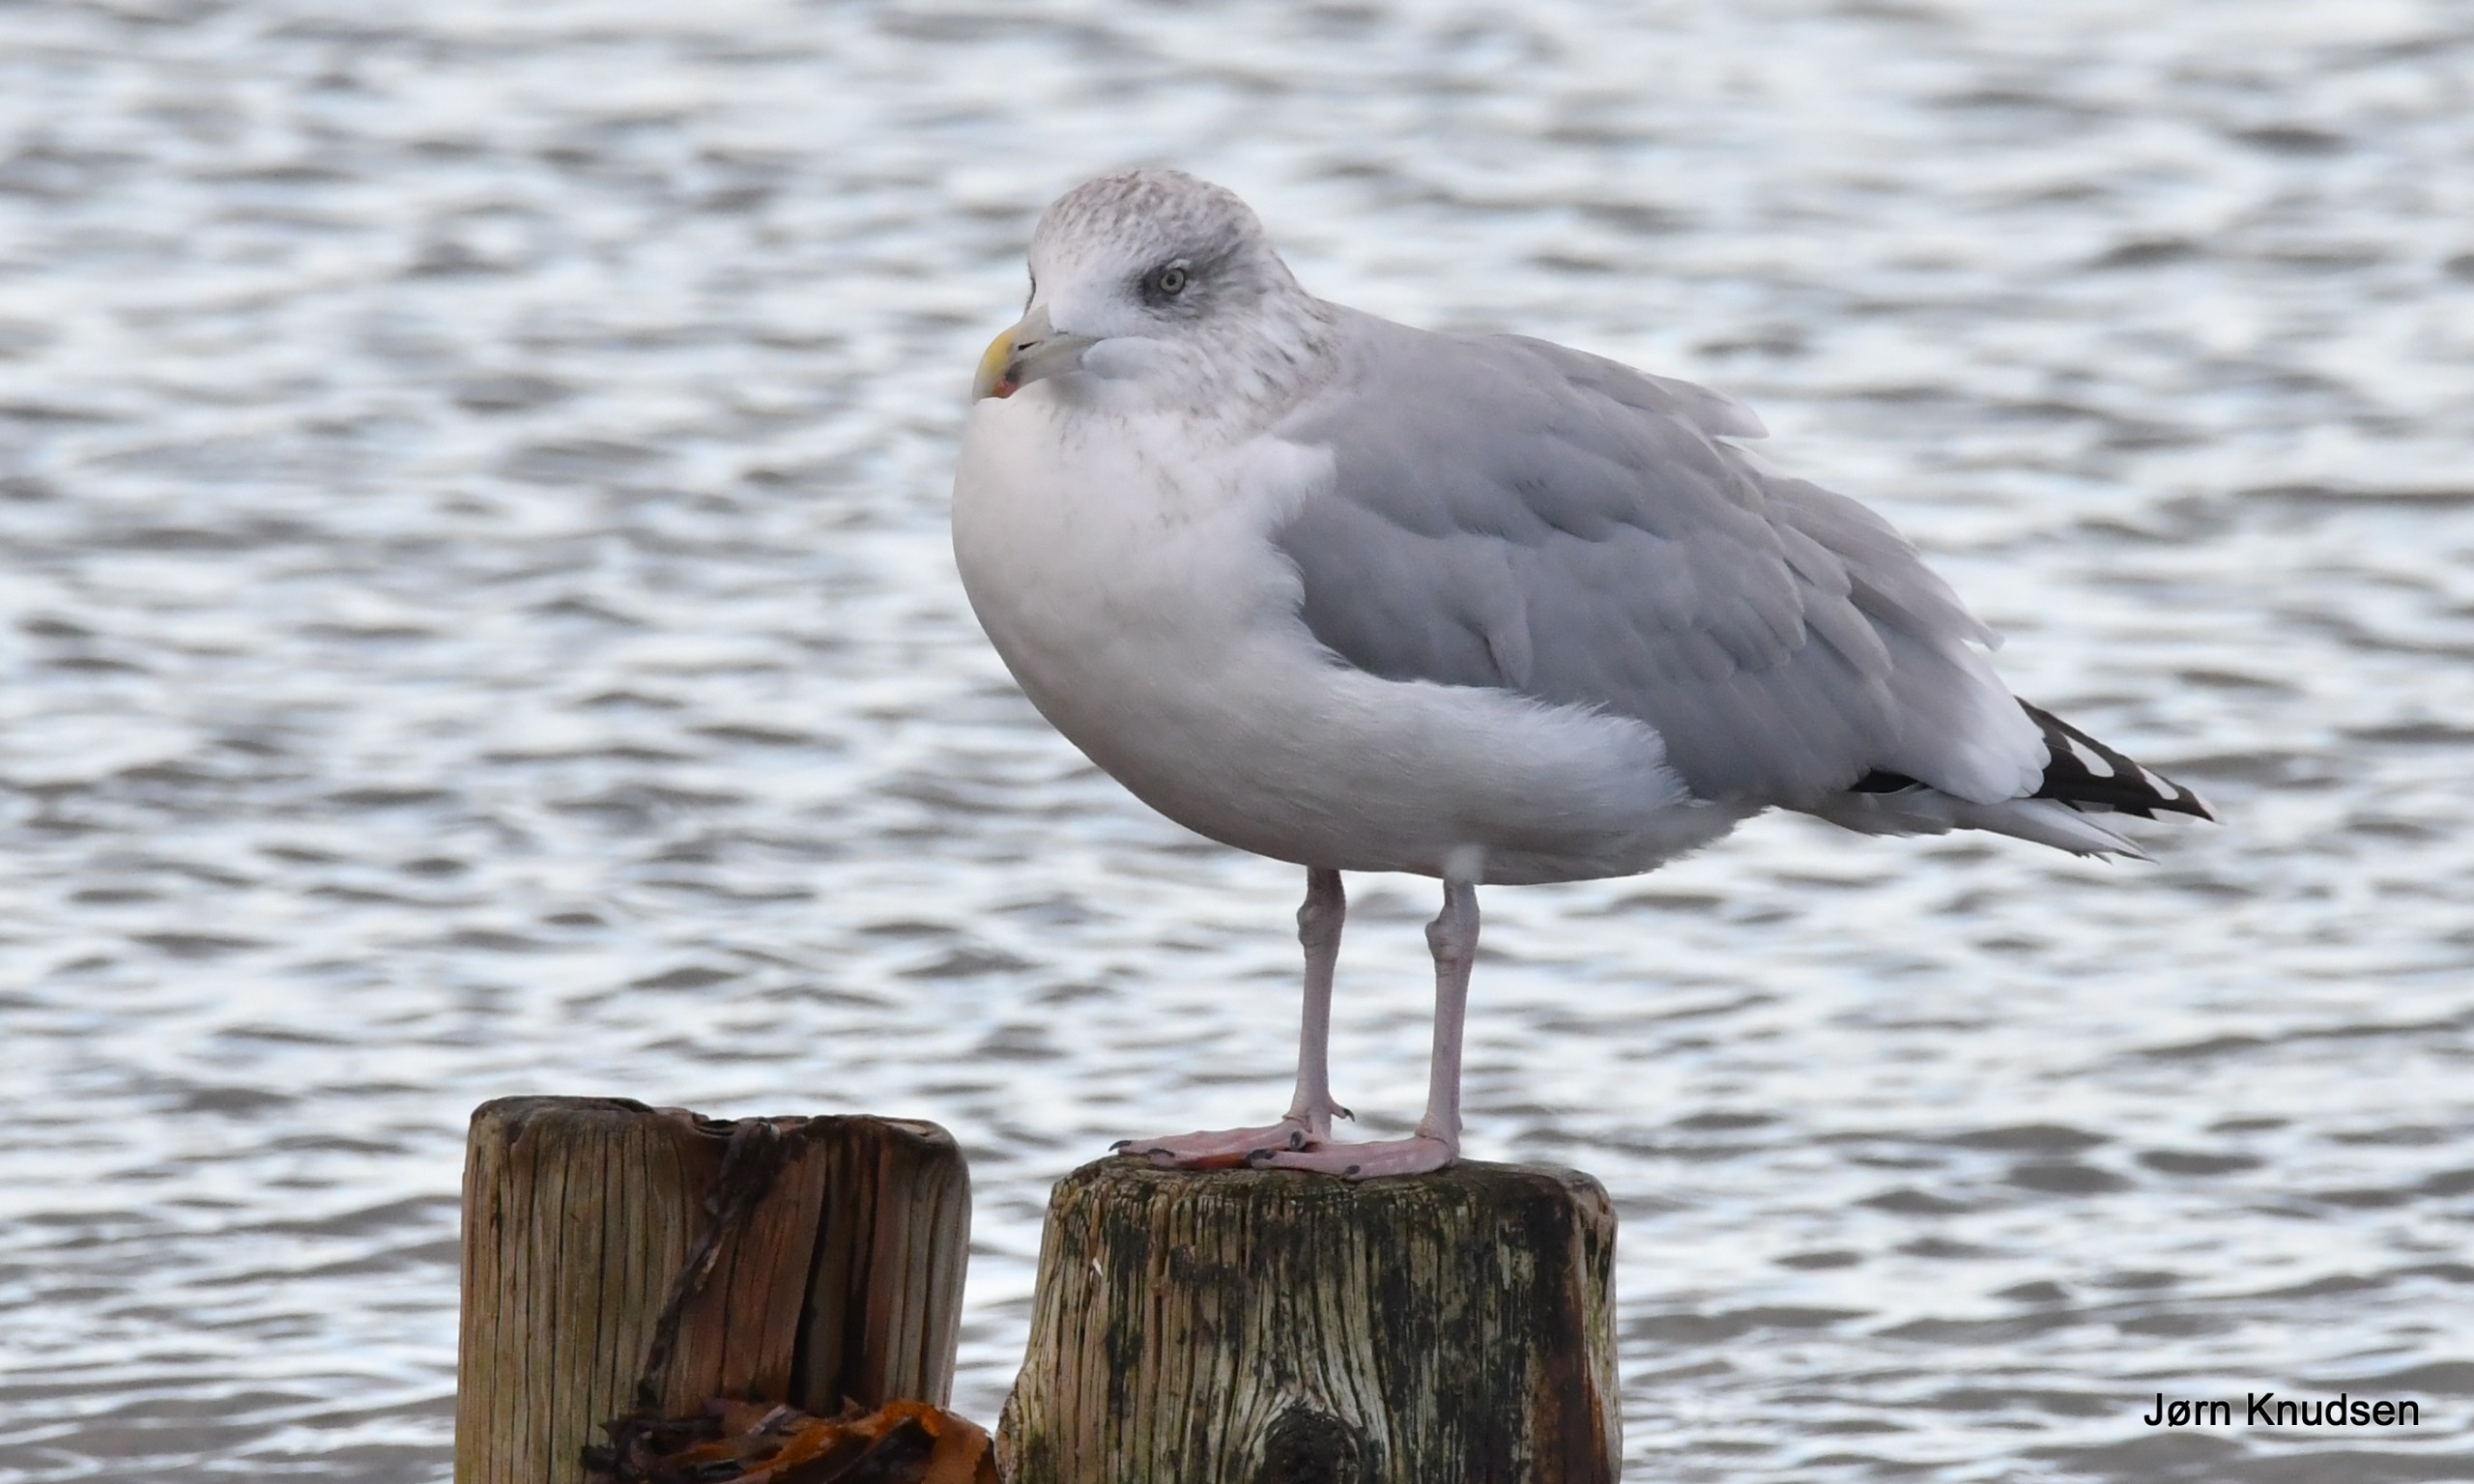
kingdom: Animalia
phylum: Chordata
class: Aves
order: Charadriiformes
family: Laridae
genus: Larus
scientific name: Larus argentatus
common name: Sølvmåge
